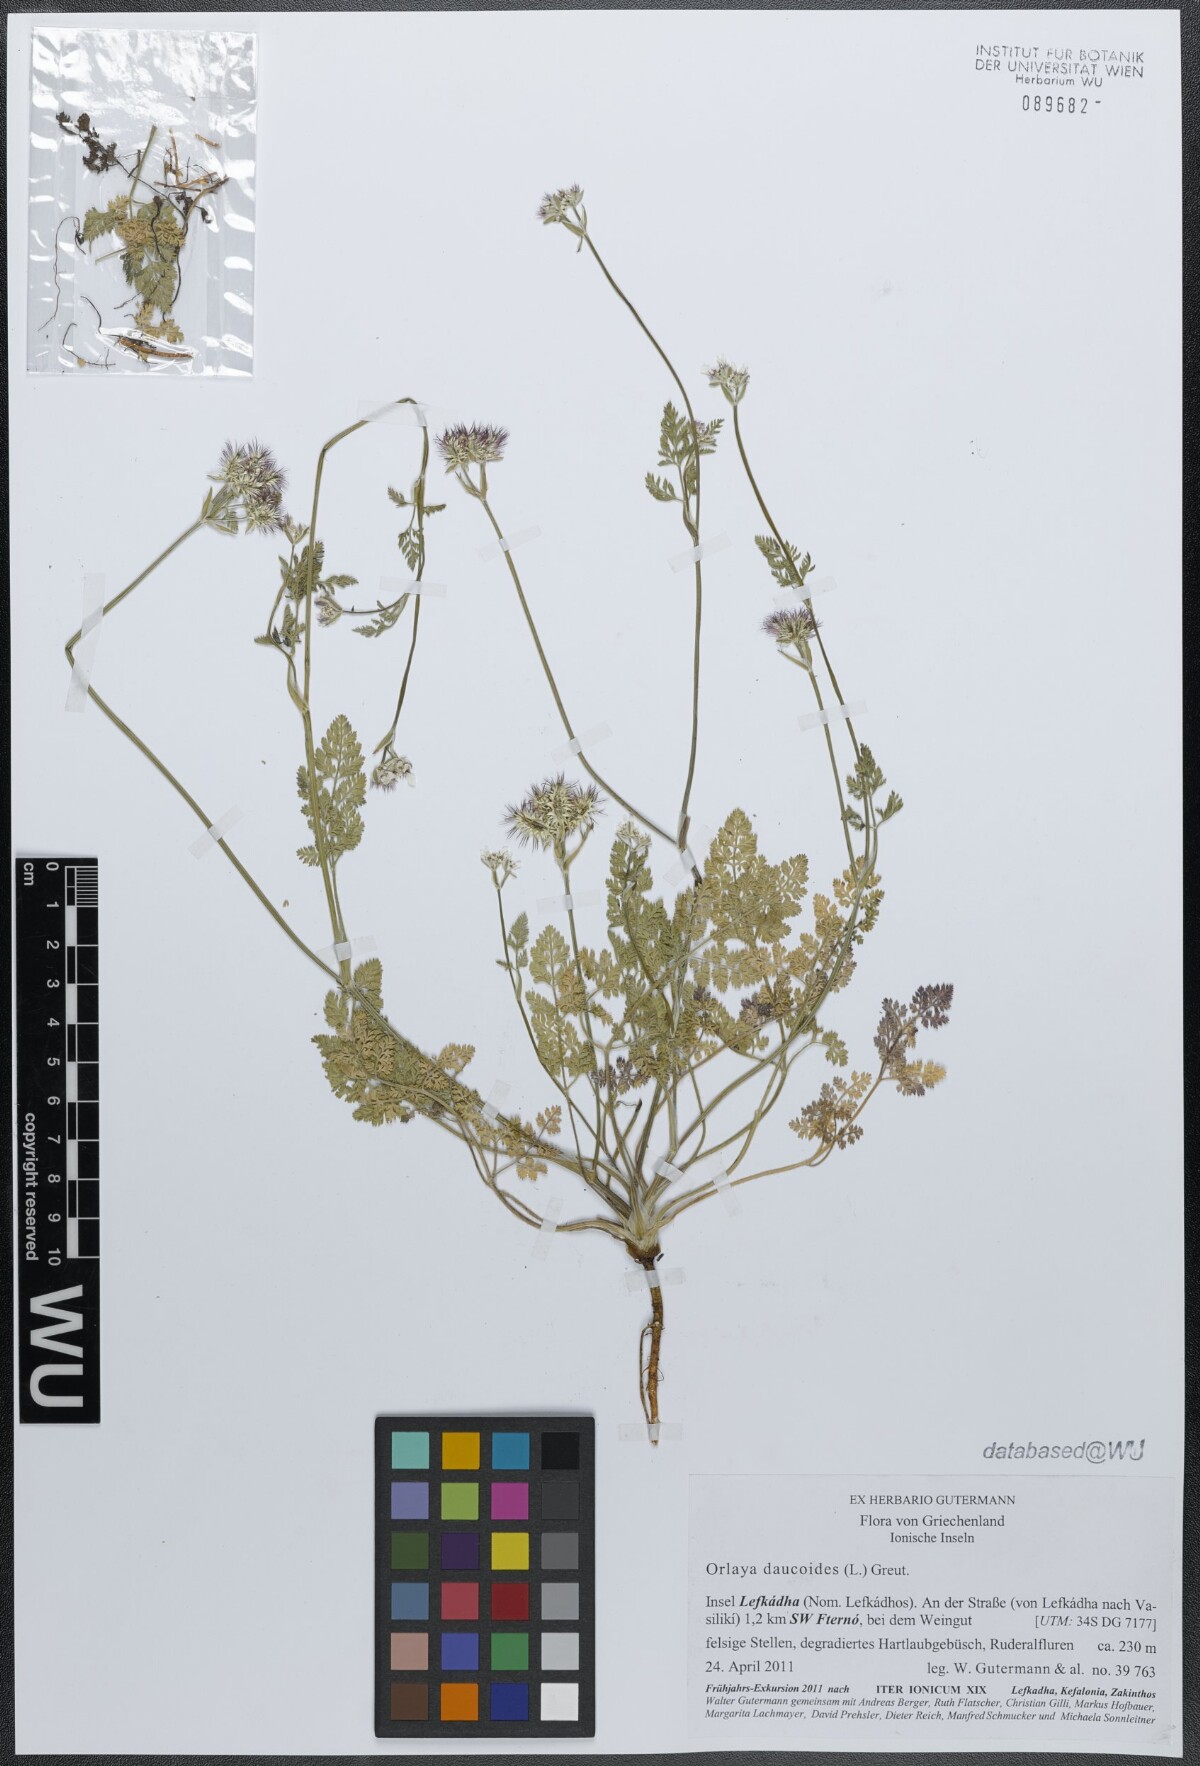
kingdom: Plantae
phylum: Tracheophyta
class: Magnoliopsida
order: Apiales
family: Apiaceae
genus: Orlaya
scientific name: Orlaya daucoides
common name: Flat-fruit orlaya
